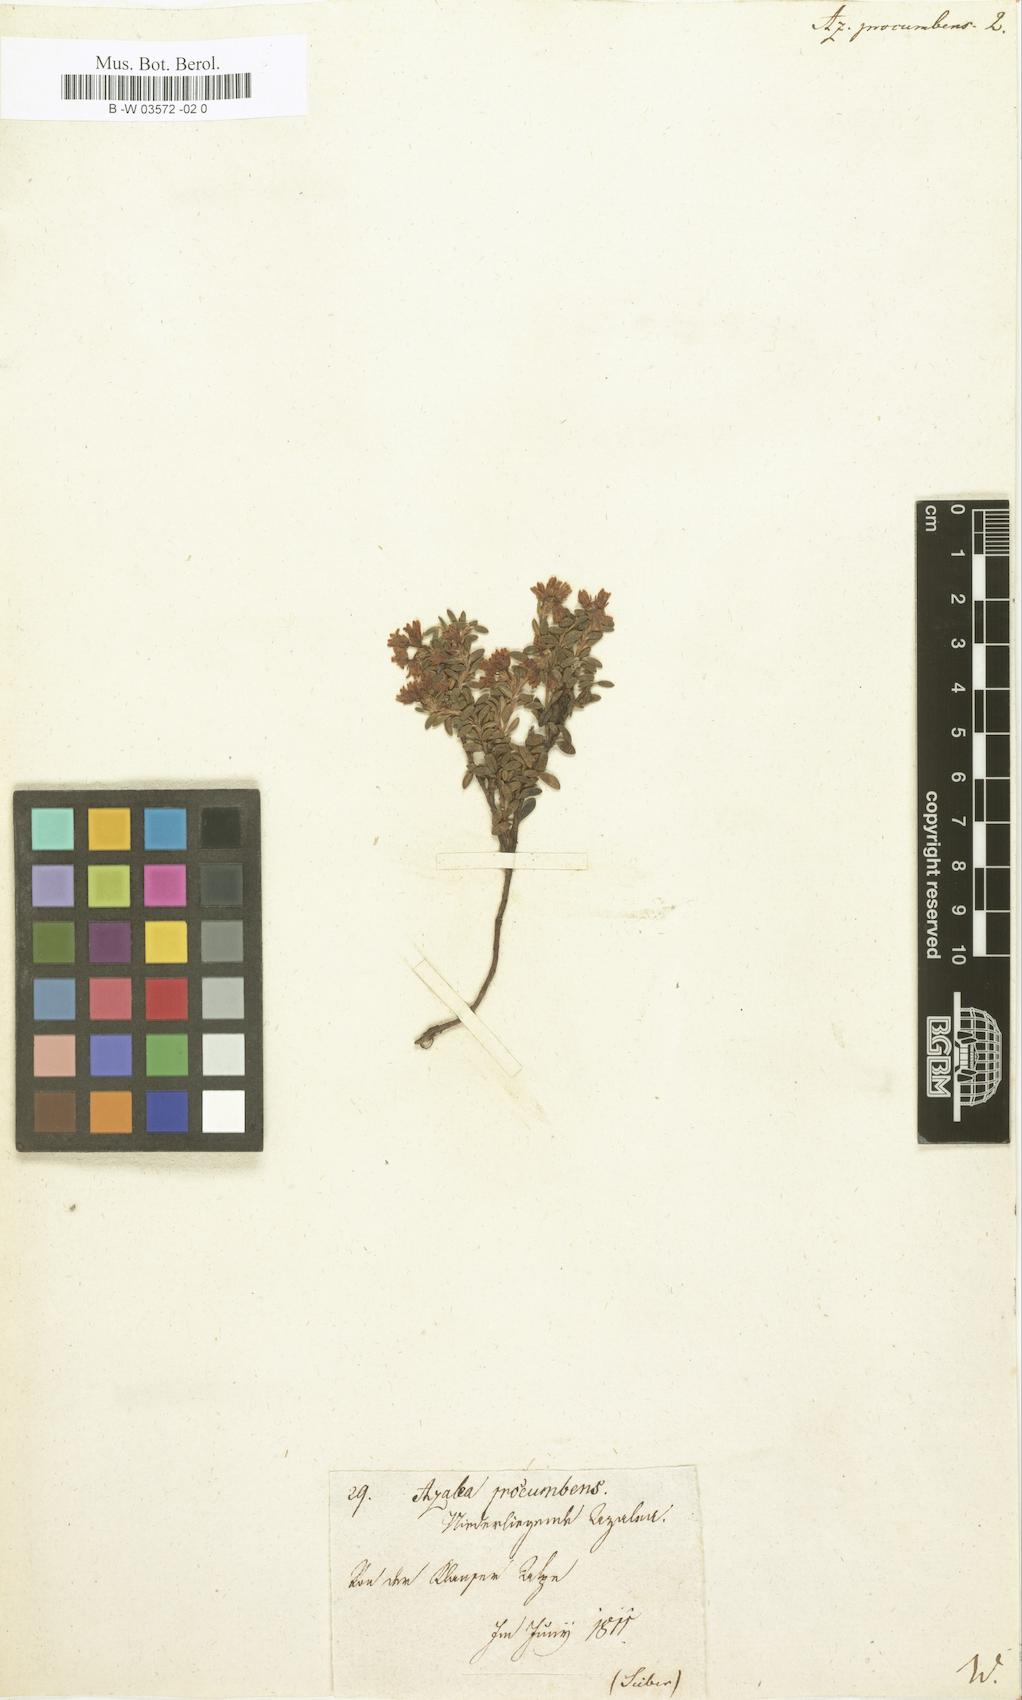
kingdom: Plantae
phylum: Tracheophyta
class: Magnoliopsida
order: Ericales
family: Ericaceae
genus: Kalmia
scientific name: Kalmia procumbens
